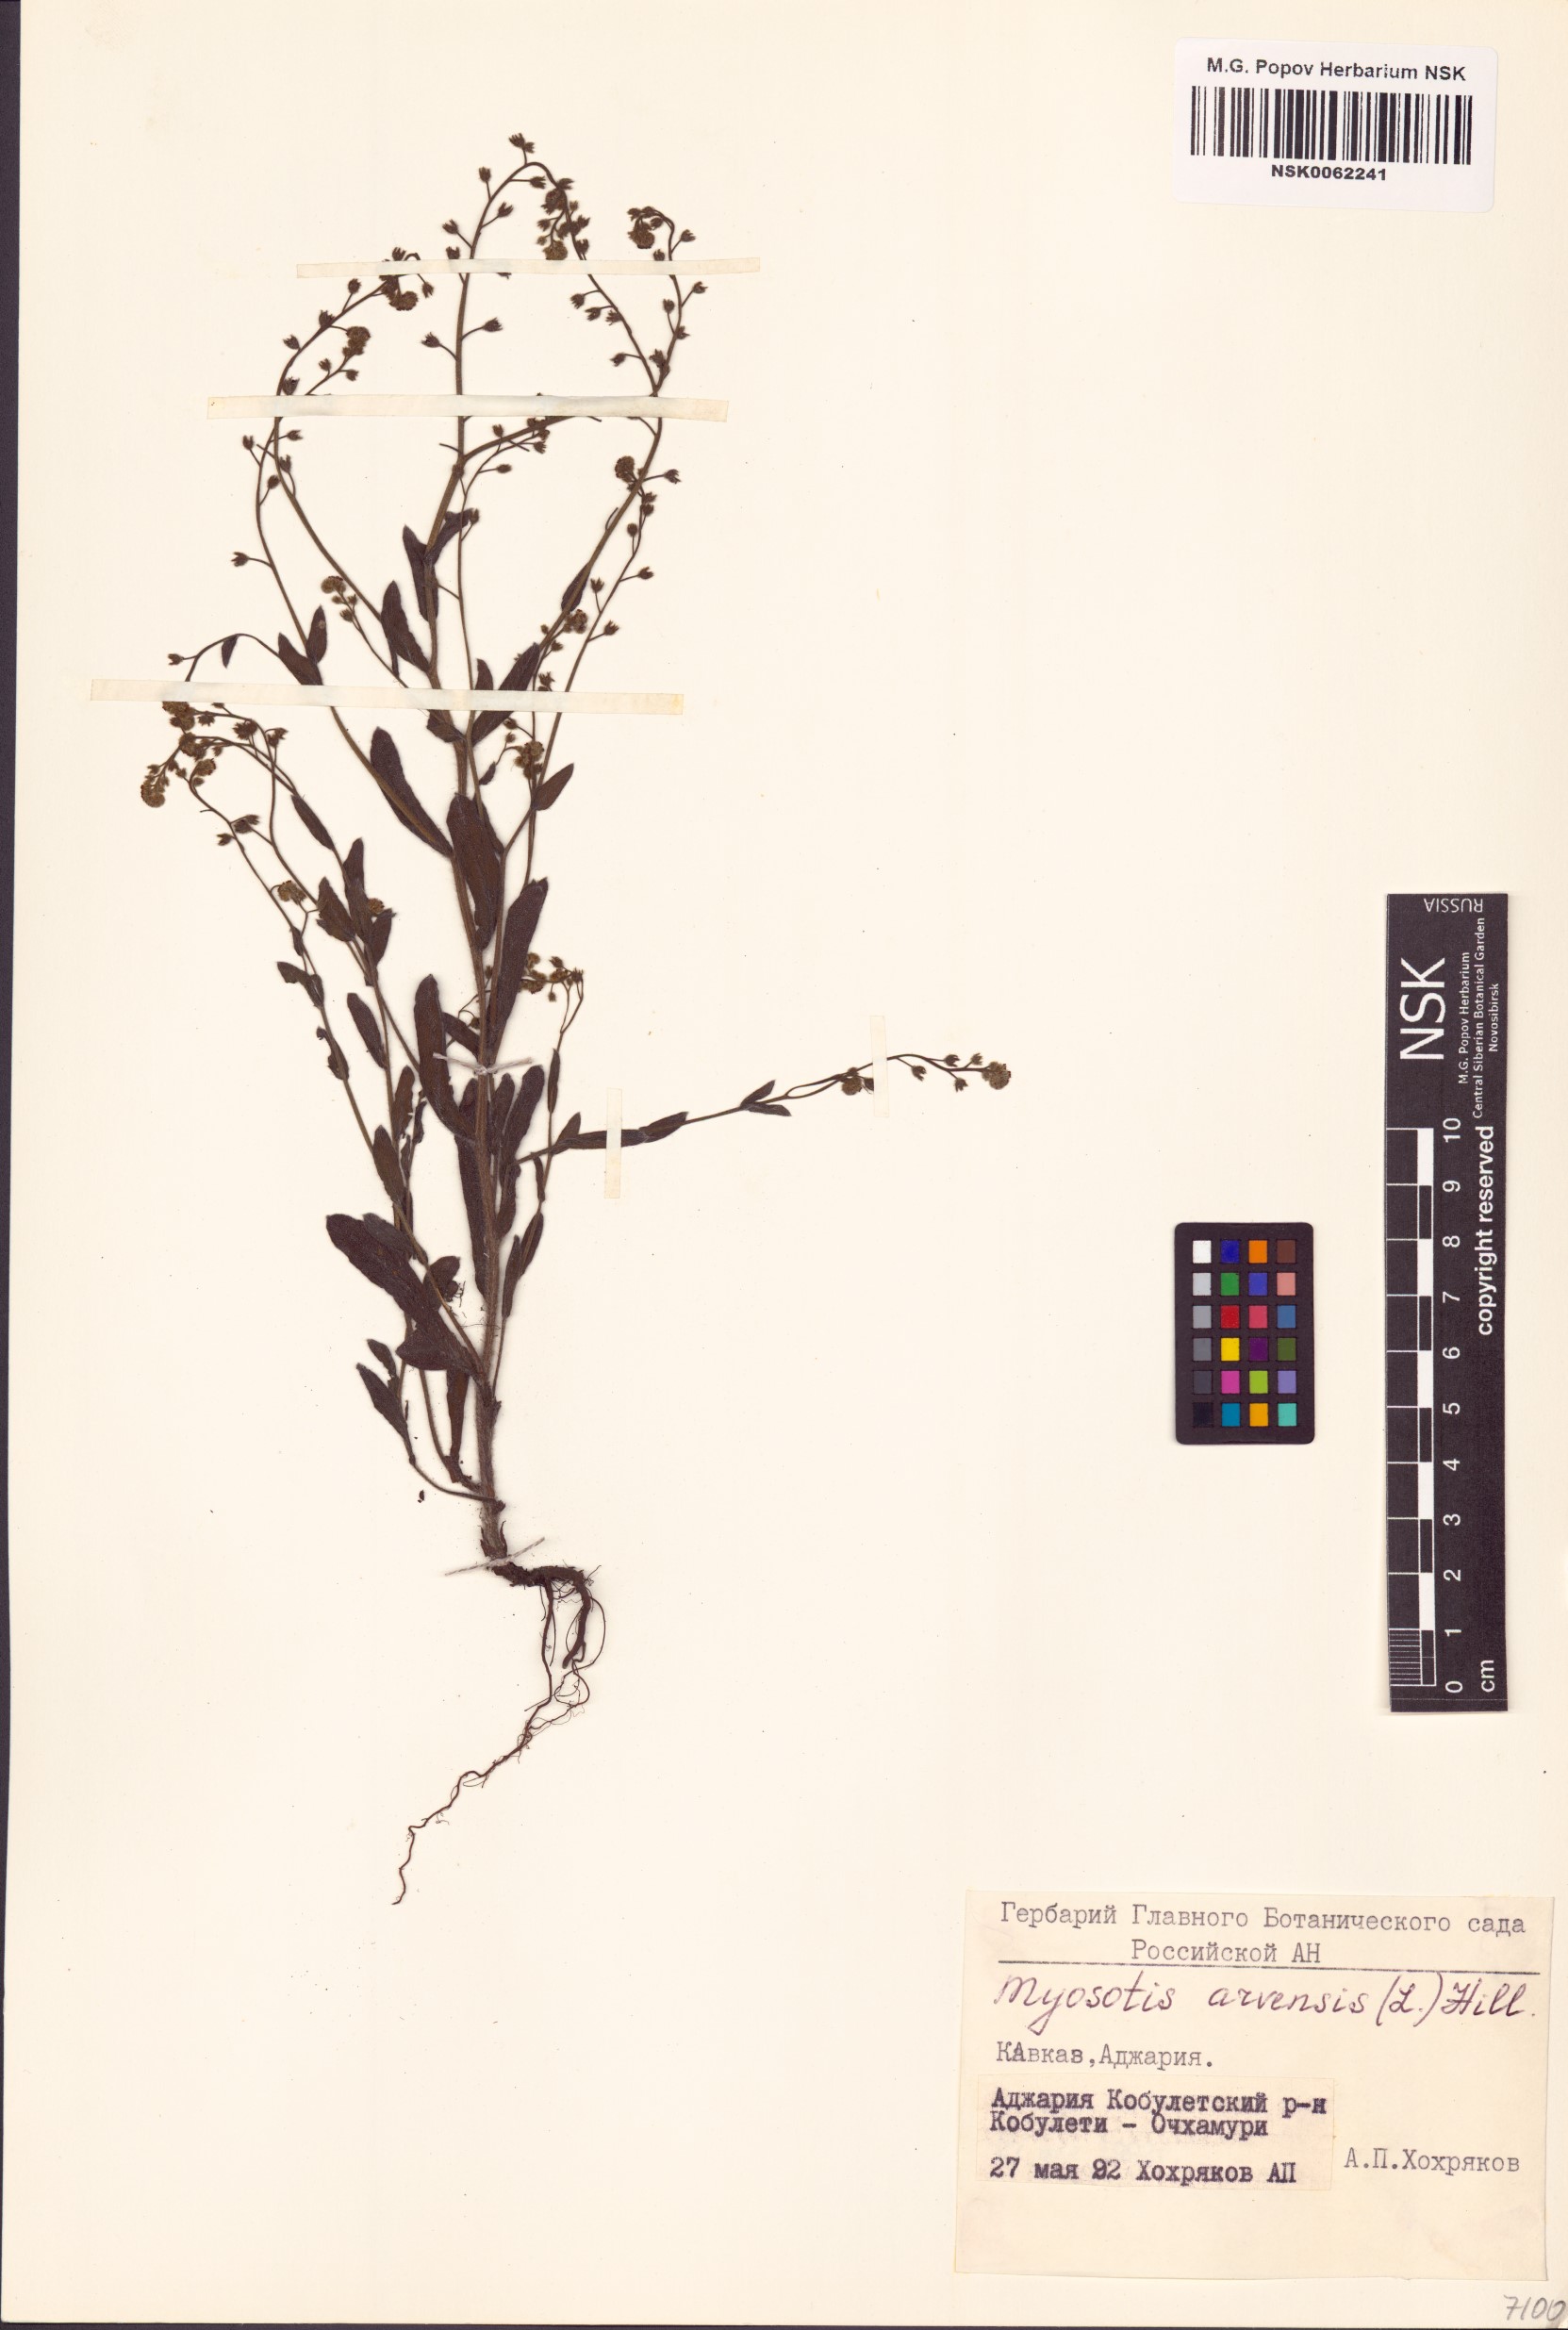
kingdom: Plantae
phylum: Tracheophyta
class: Magnoliopsida
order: Boraginales
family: Boraginaceae
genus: Myosotis
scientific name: Myosotis arvensis
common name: Field forget-me-not
